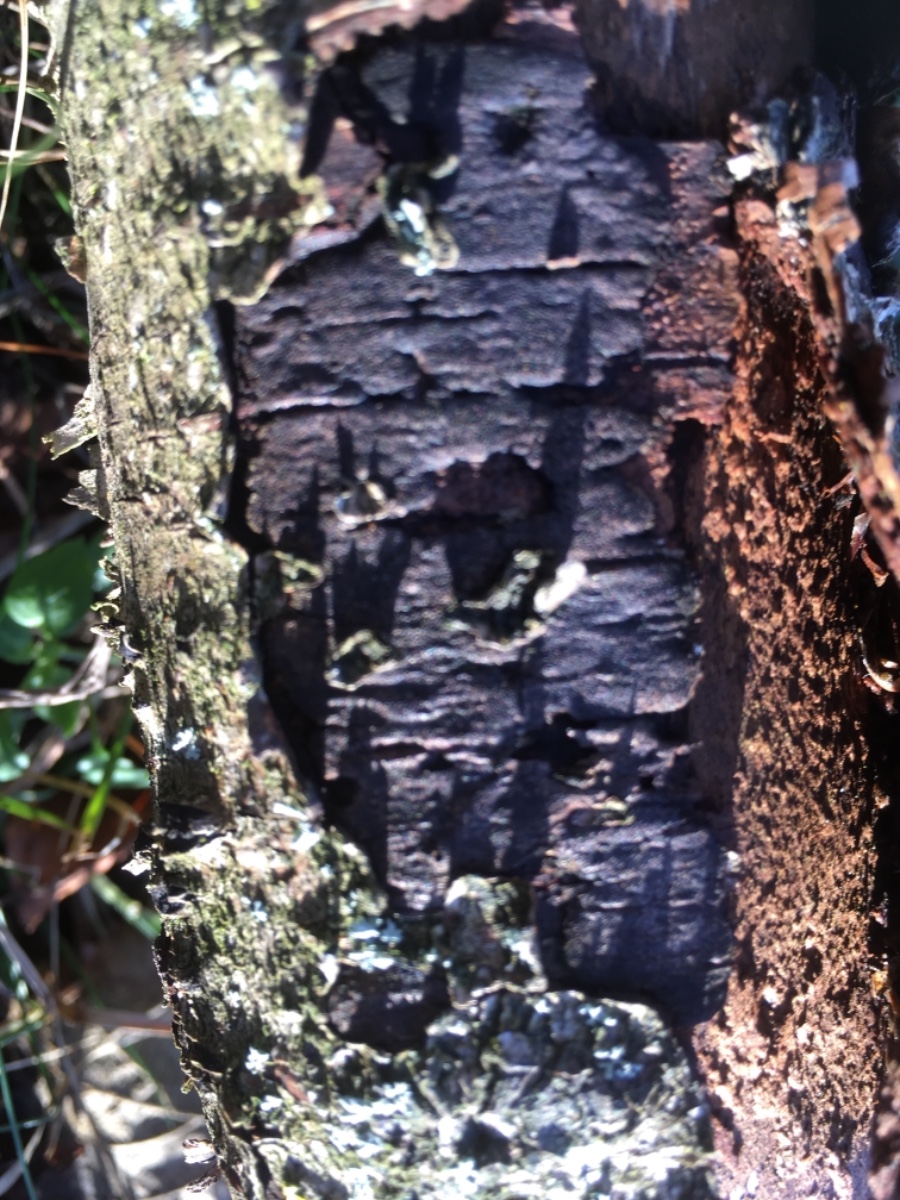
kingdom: Fungi
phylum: Ascomycota
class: Sordariomycetes
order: Xylariales
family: Diatrypaceae
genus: Diatrype
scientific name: Diatrype
